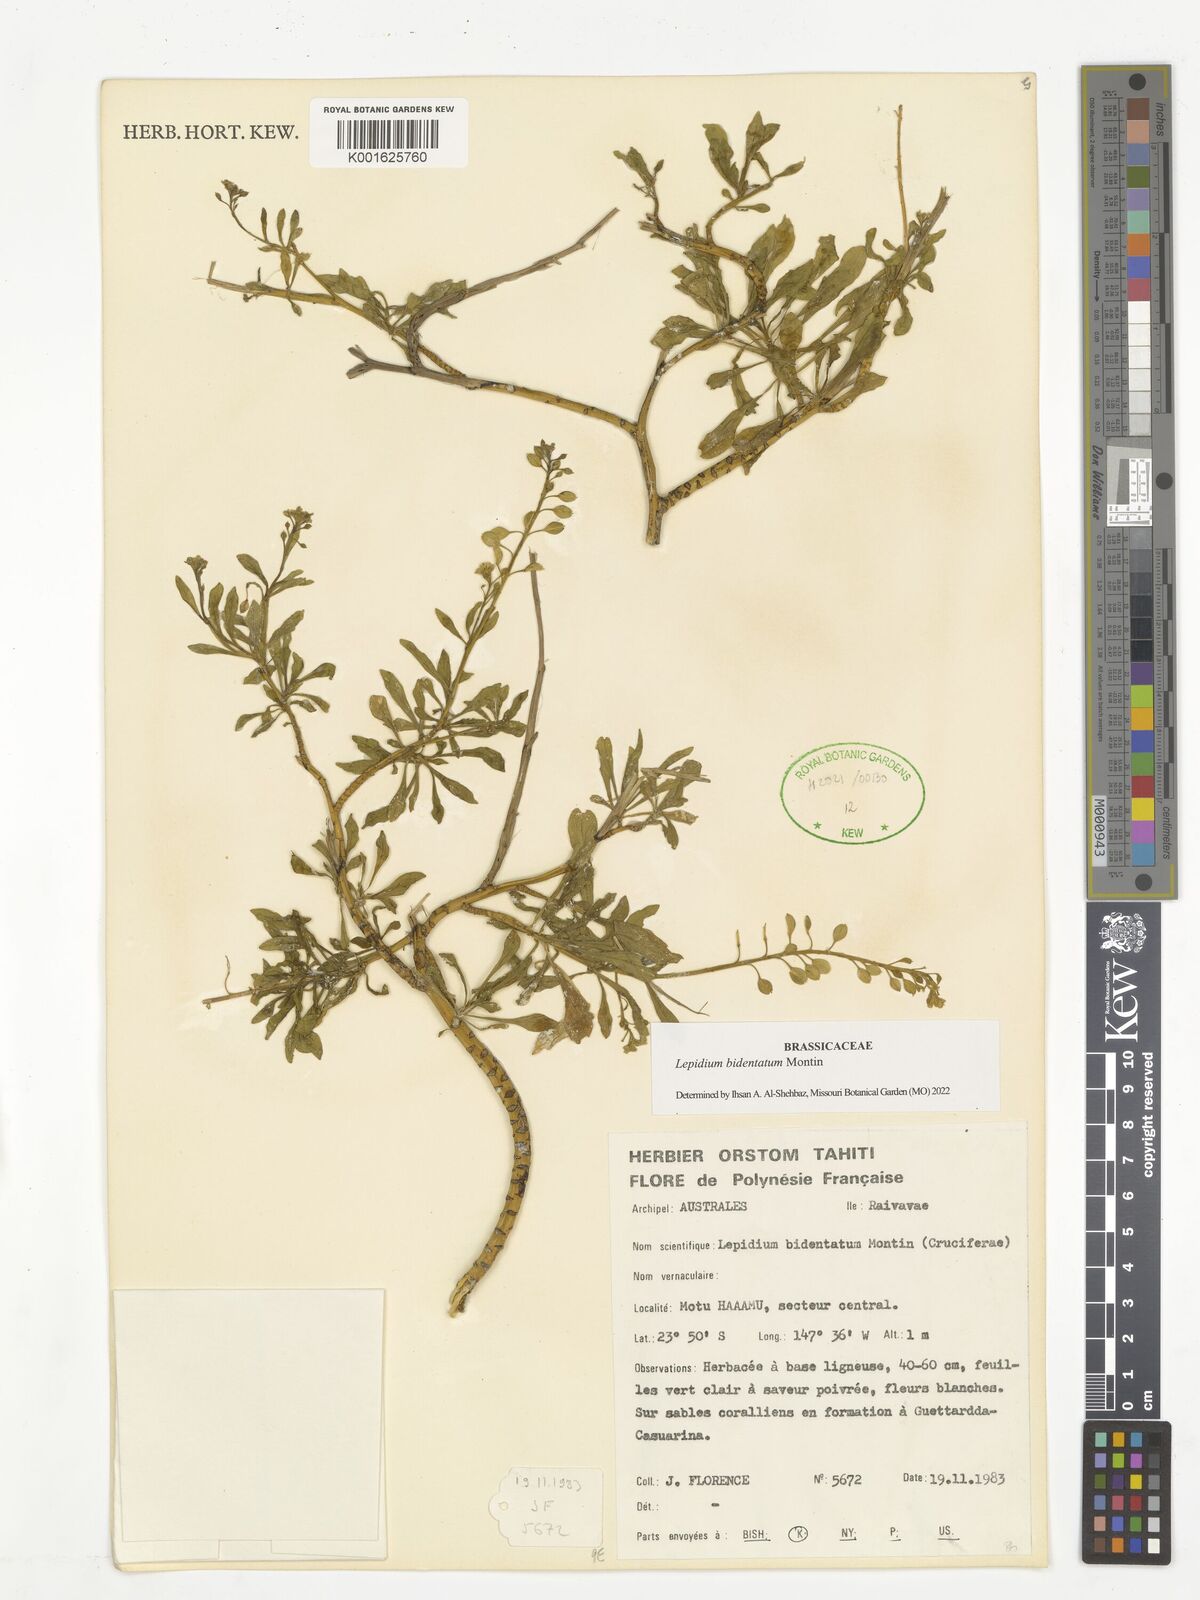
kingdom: Plantae
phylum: Tracheophyta
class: Magnoliopsida
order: Brassicales
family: Brassicaceae
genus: Lepidium
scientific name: Lepidium bidentatum
